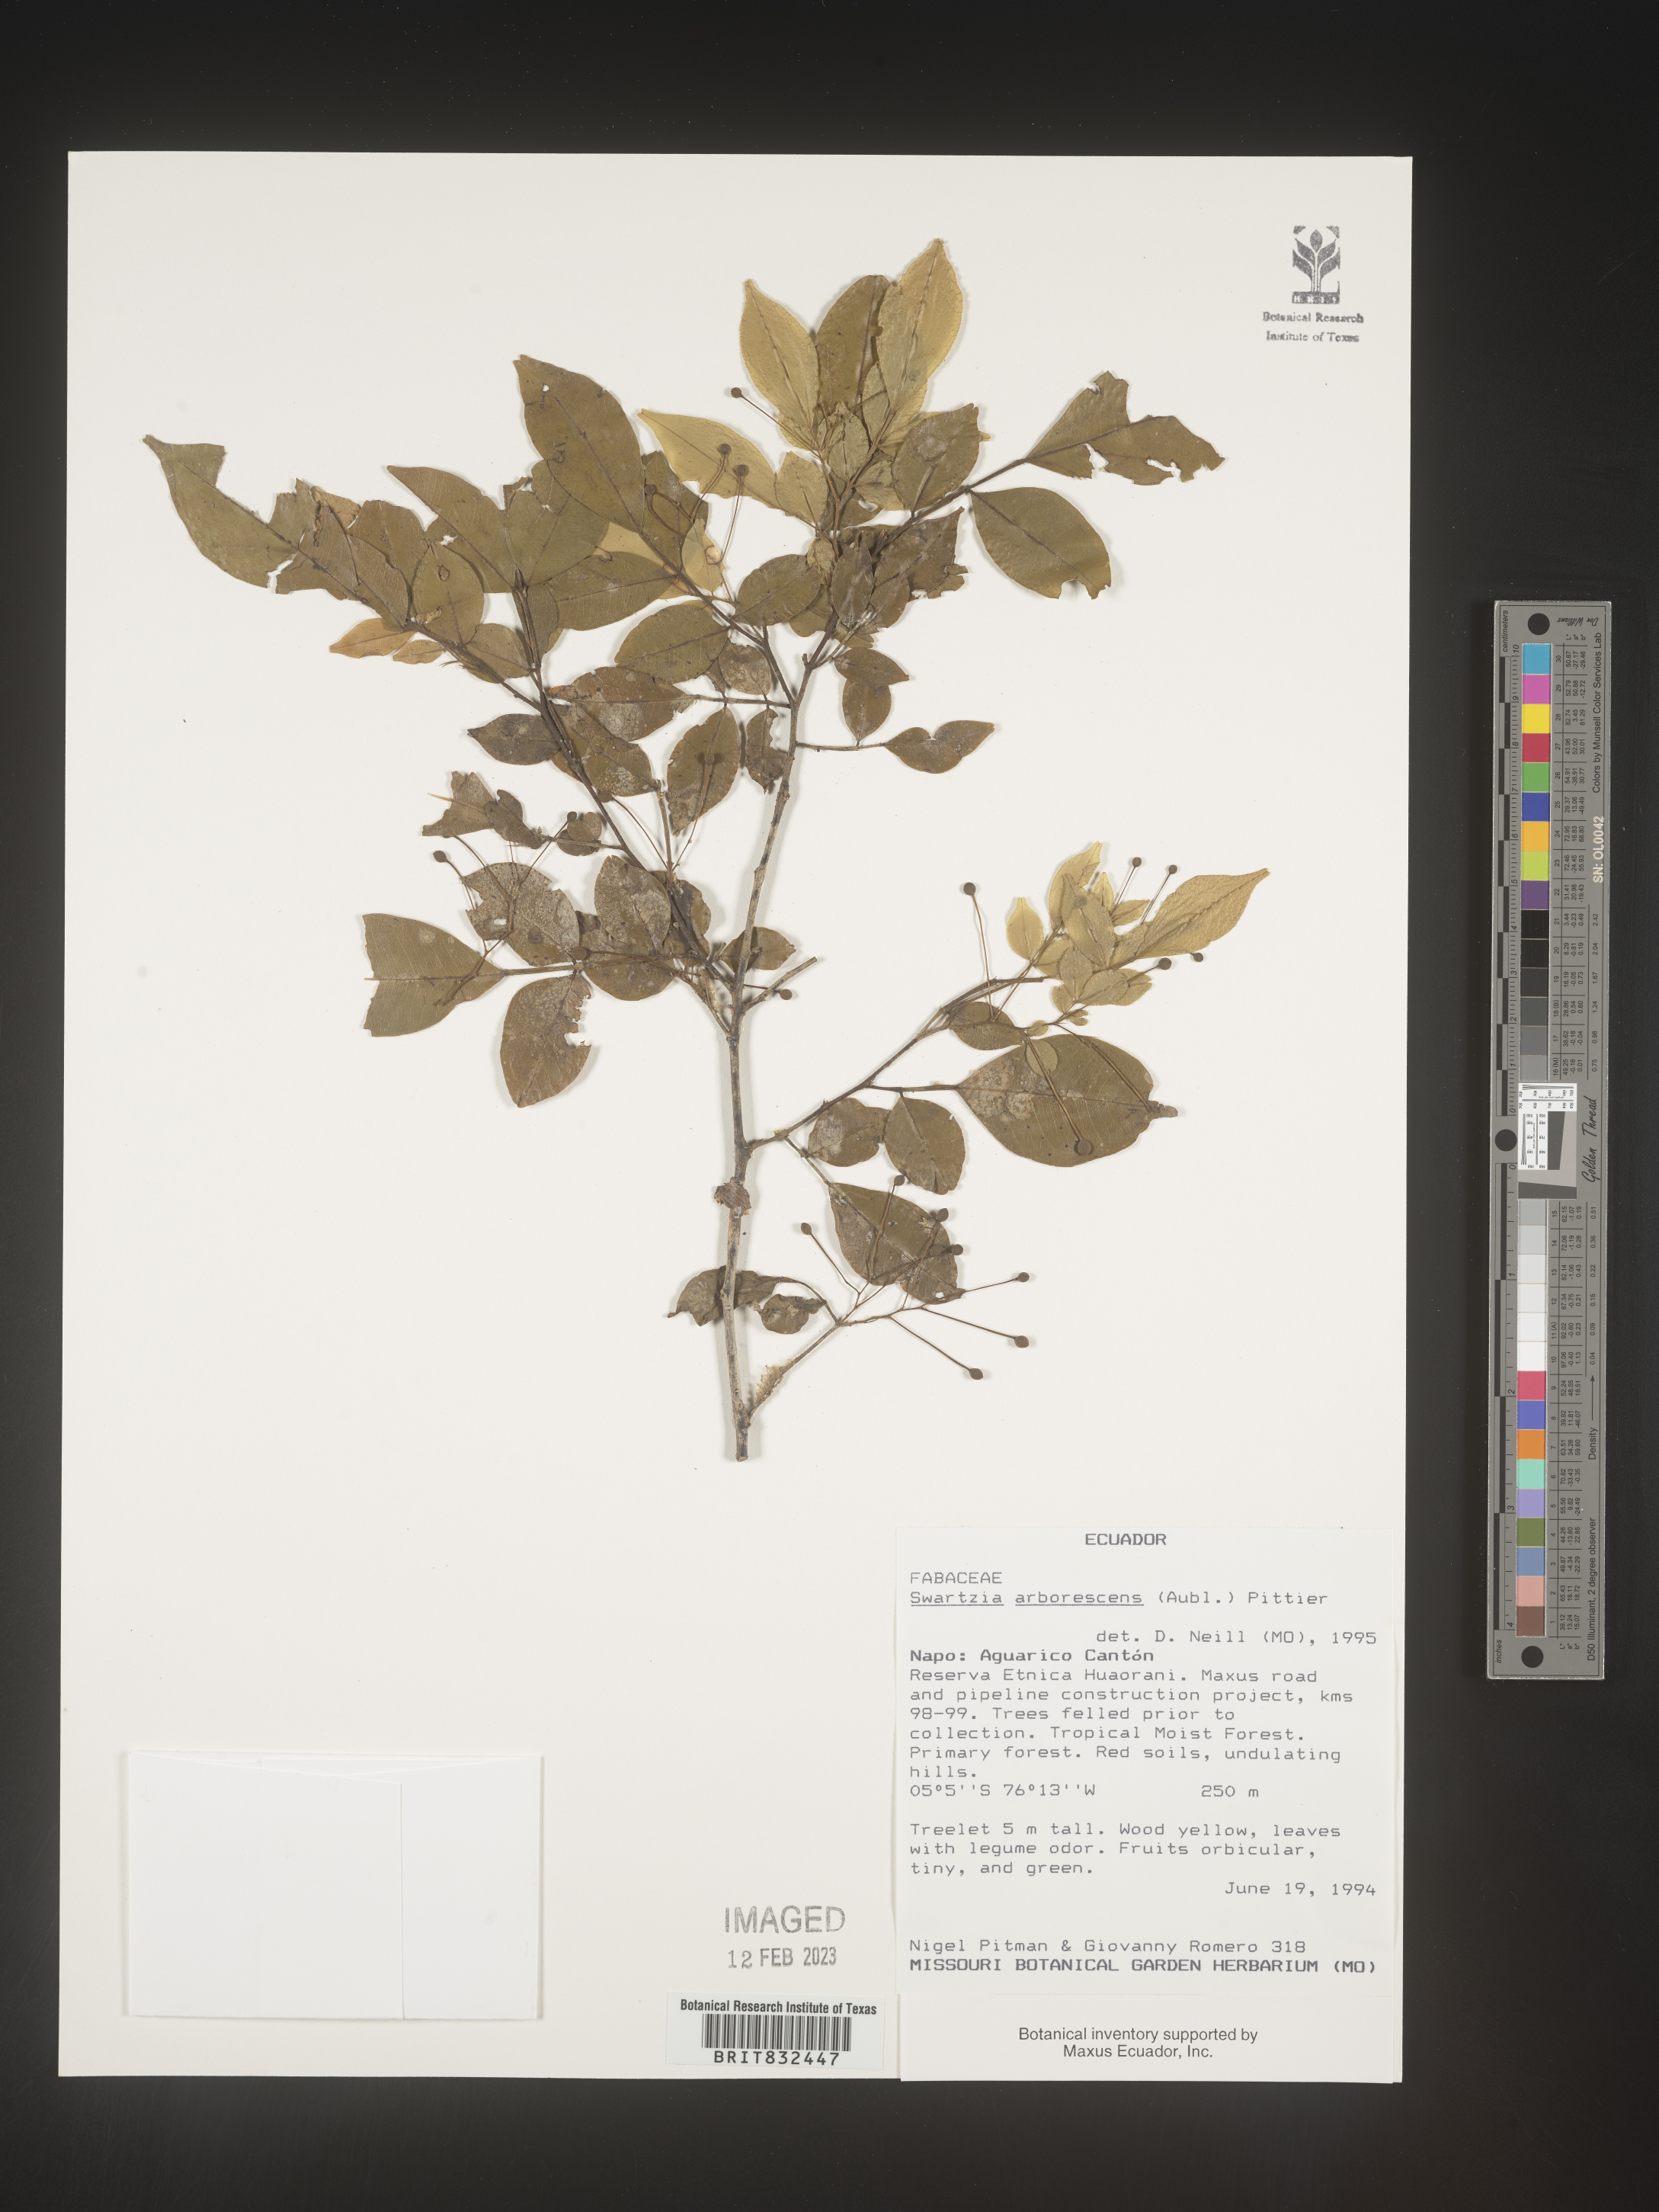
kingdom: Plantae
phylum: Tracheophyta
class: Magnoliopsida
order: Fabales
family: Fabaceae
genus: Swartzia
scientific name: Swartzia
